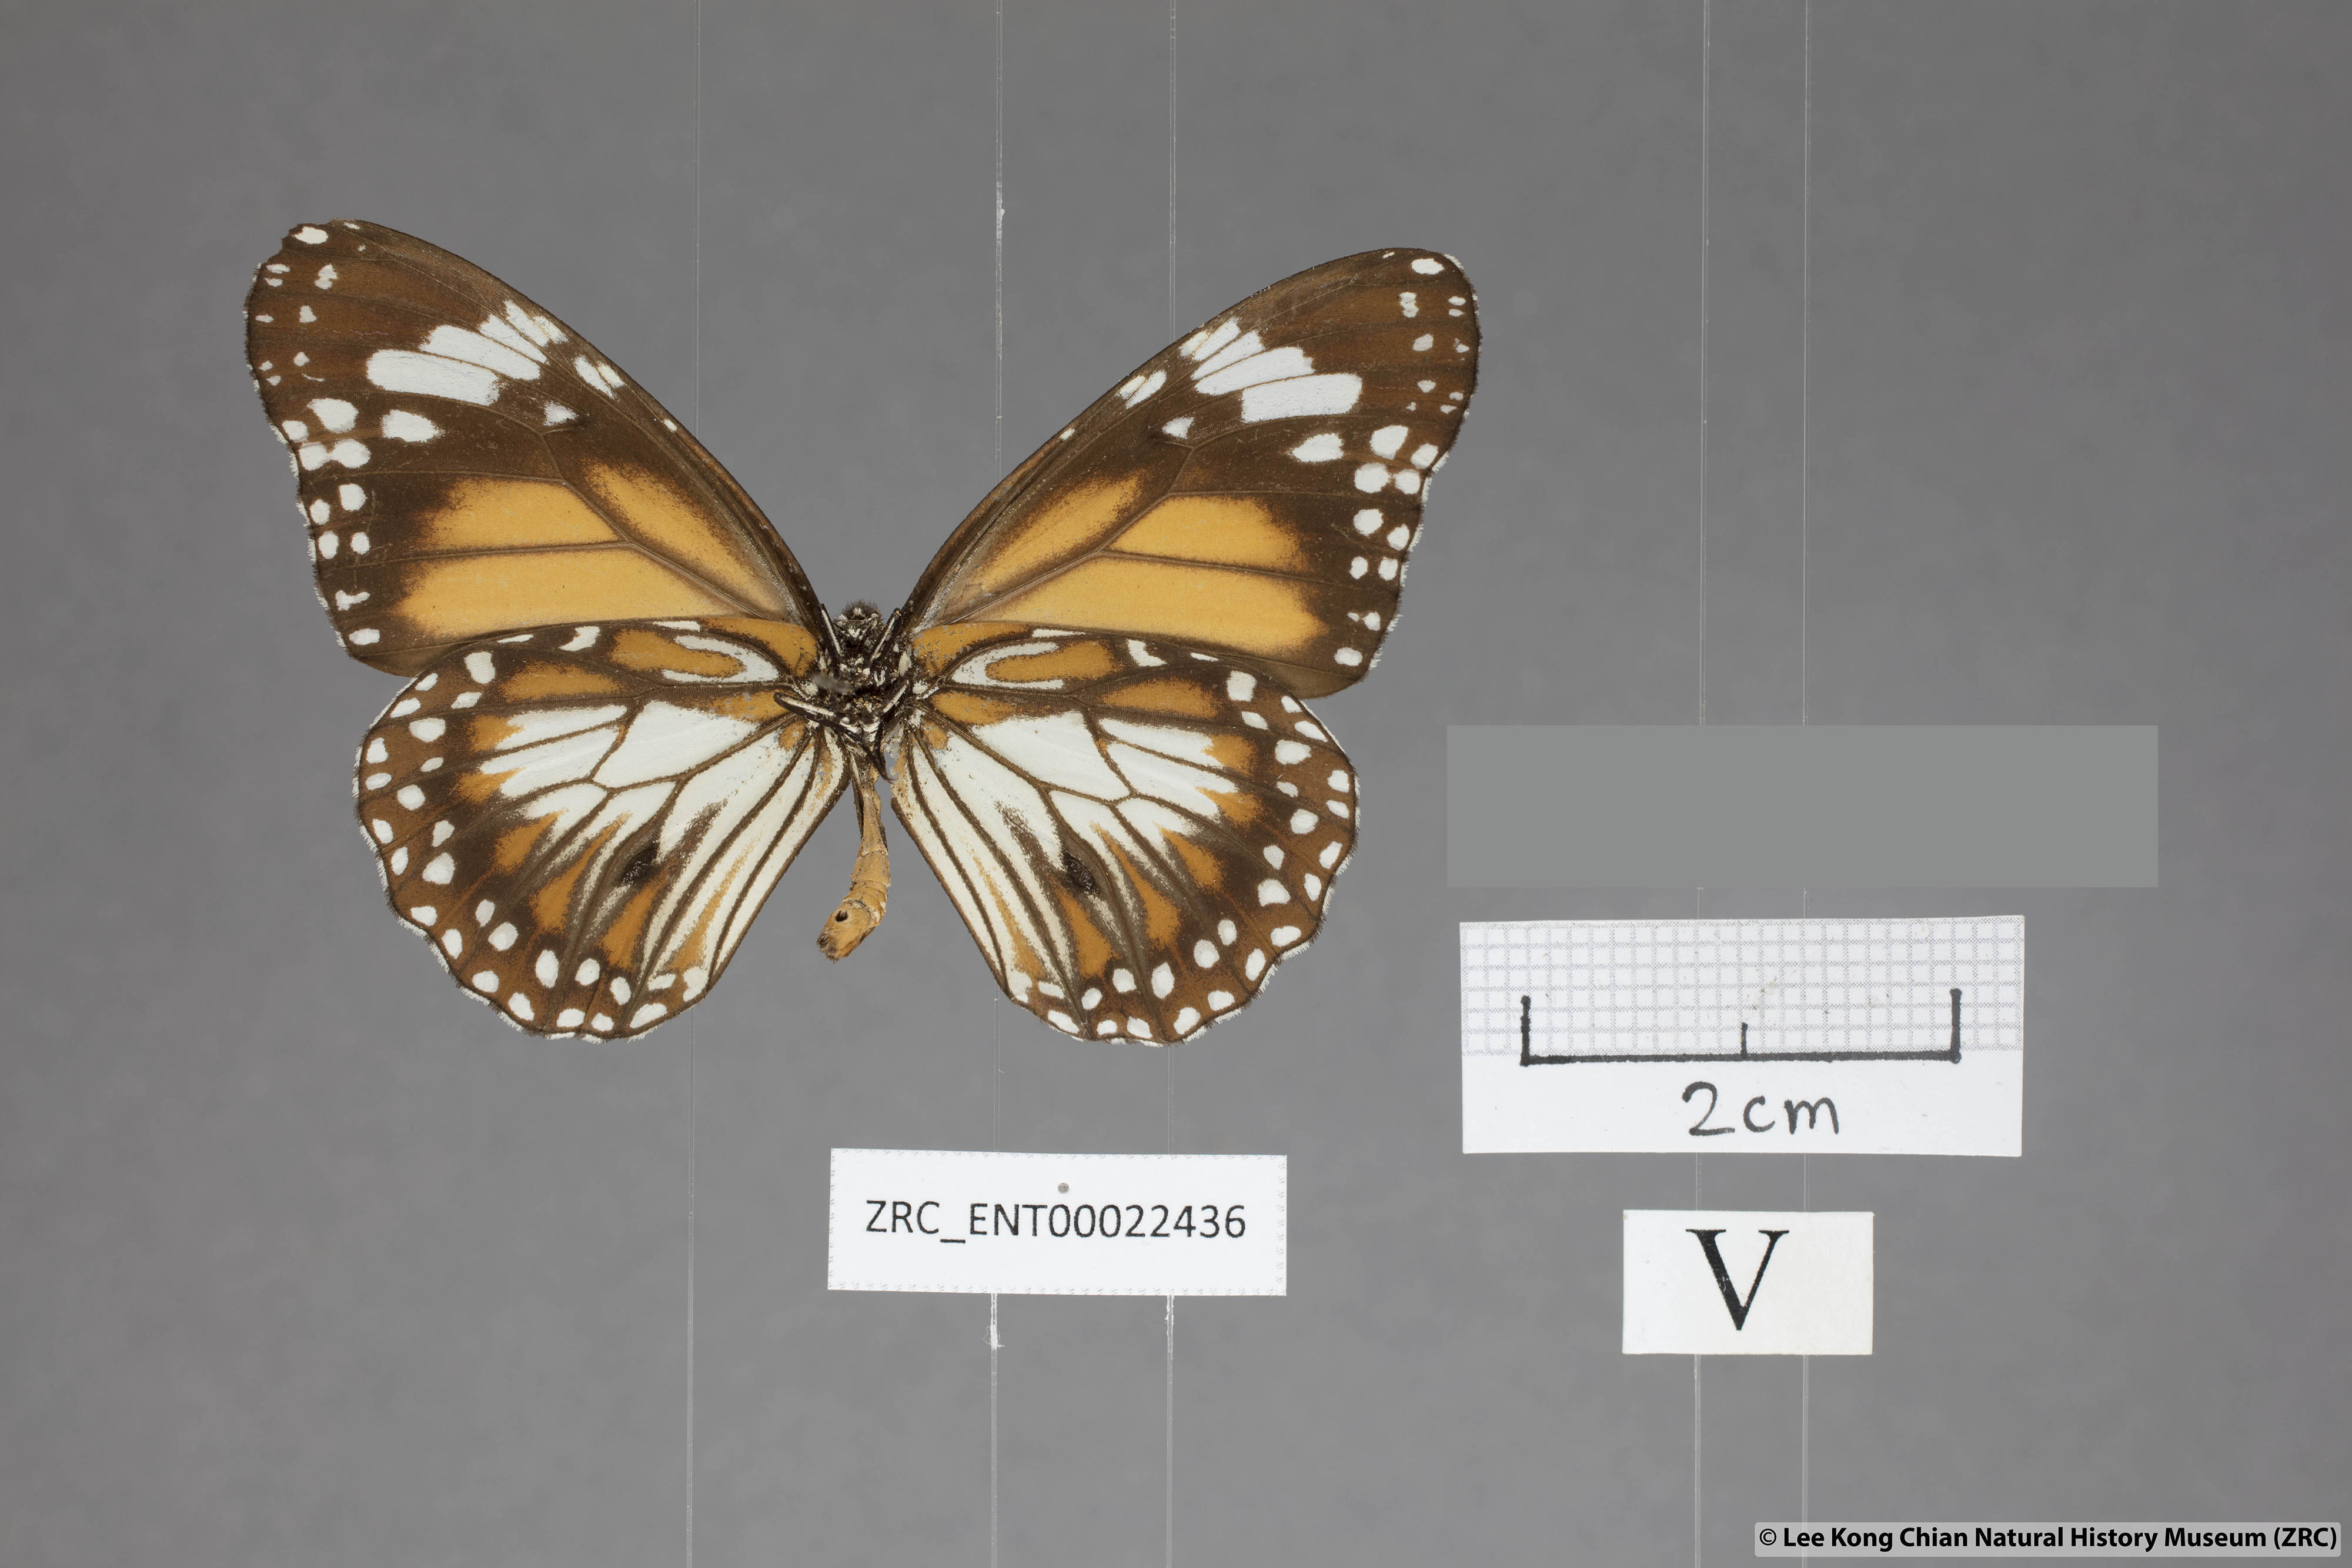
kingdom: Animalia
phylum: Arthropoda
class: Insecta
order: Lepidoptera
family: Nymphalidae
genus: Danaus
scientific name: Danaus affinis
